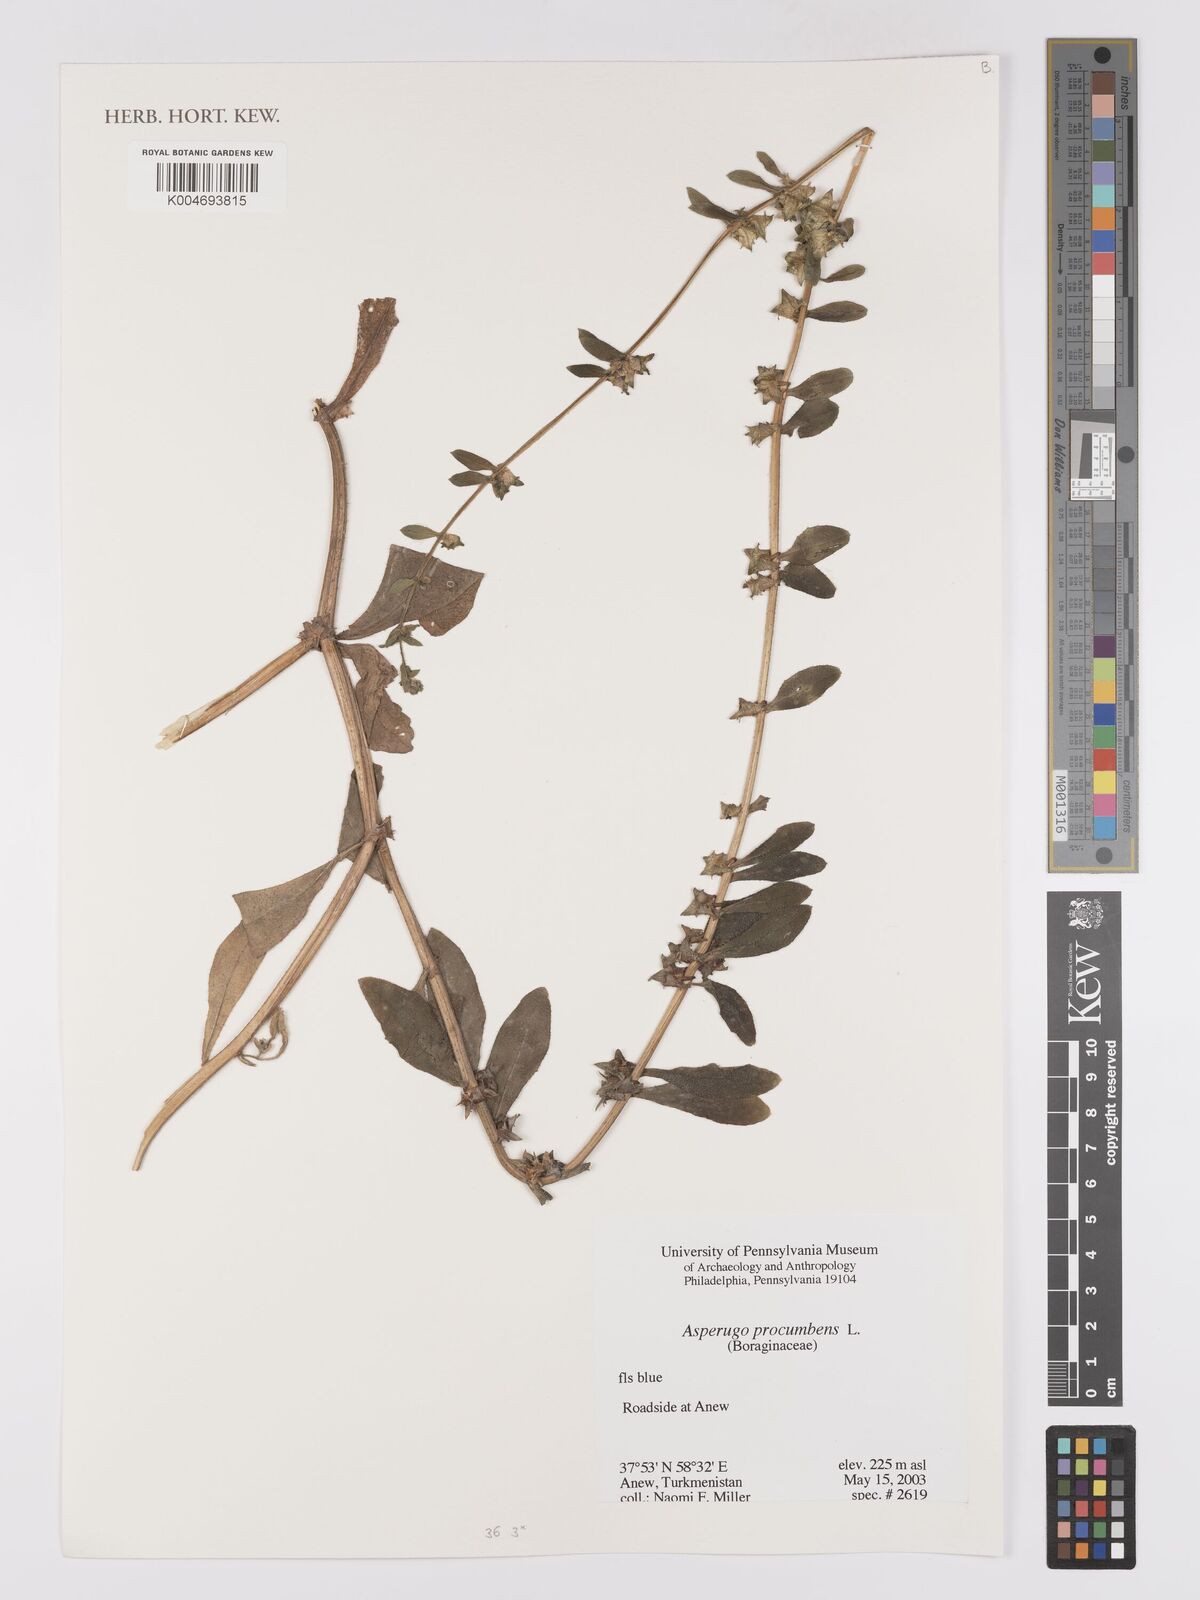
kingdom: Plantae
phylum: Tracheophyta
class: Magnoliopsida
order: Boraginales
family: Boraginaceae
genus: Asperugo
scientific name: Asperugo procumbens
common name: Madwort
